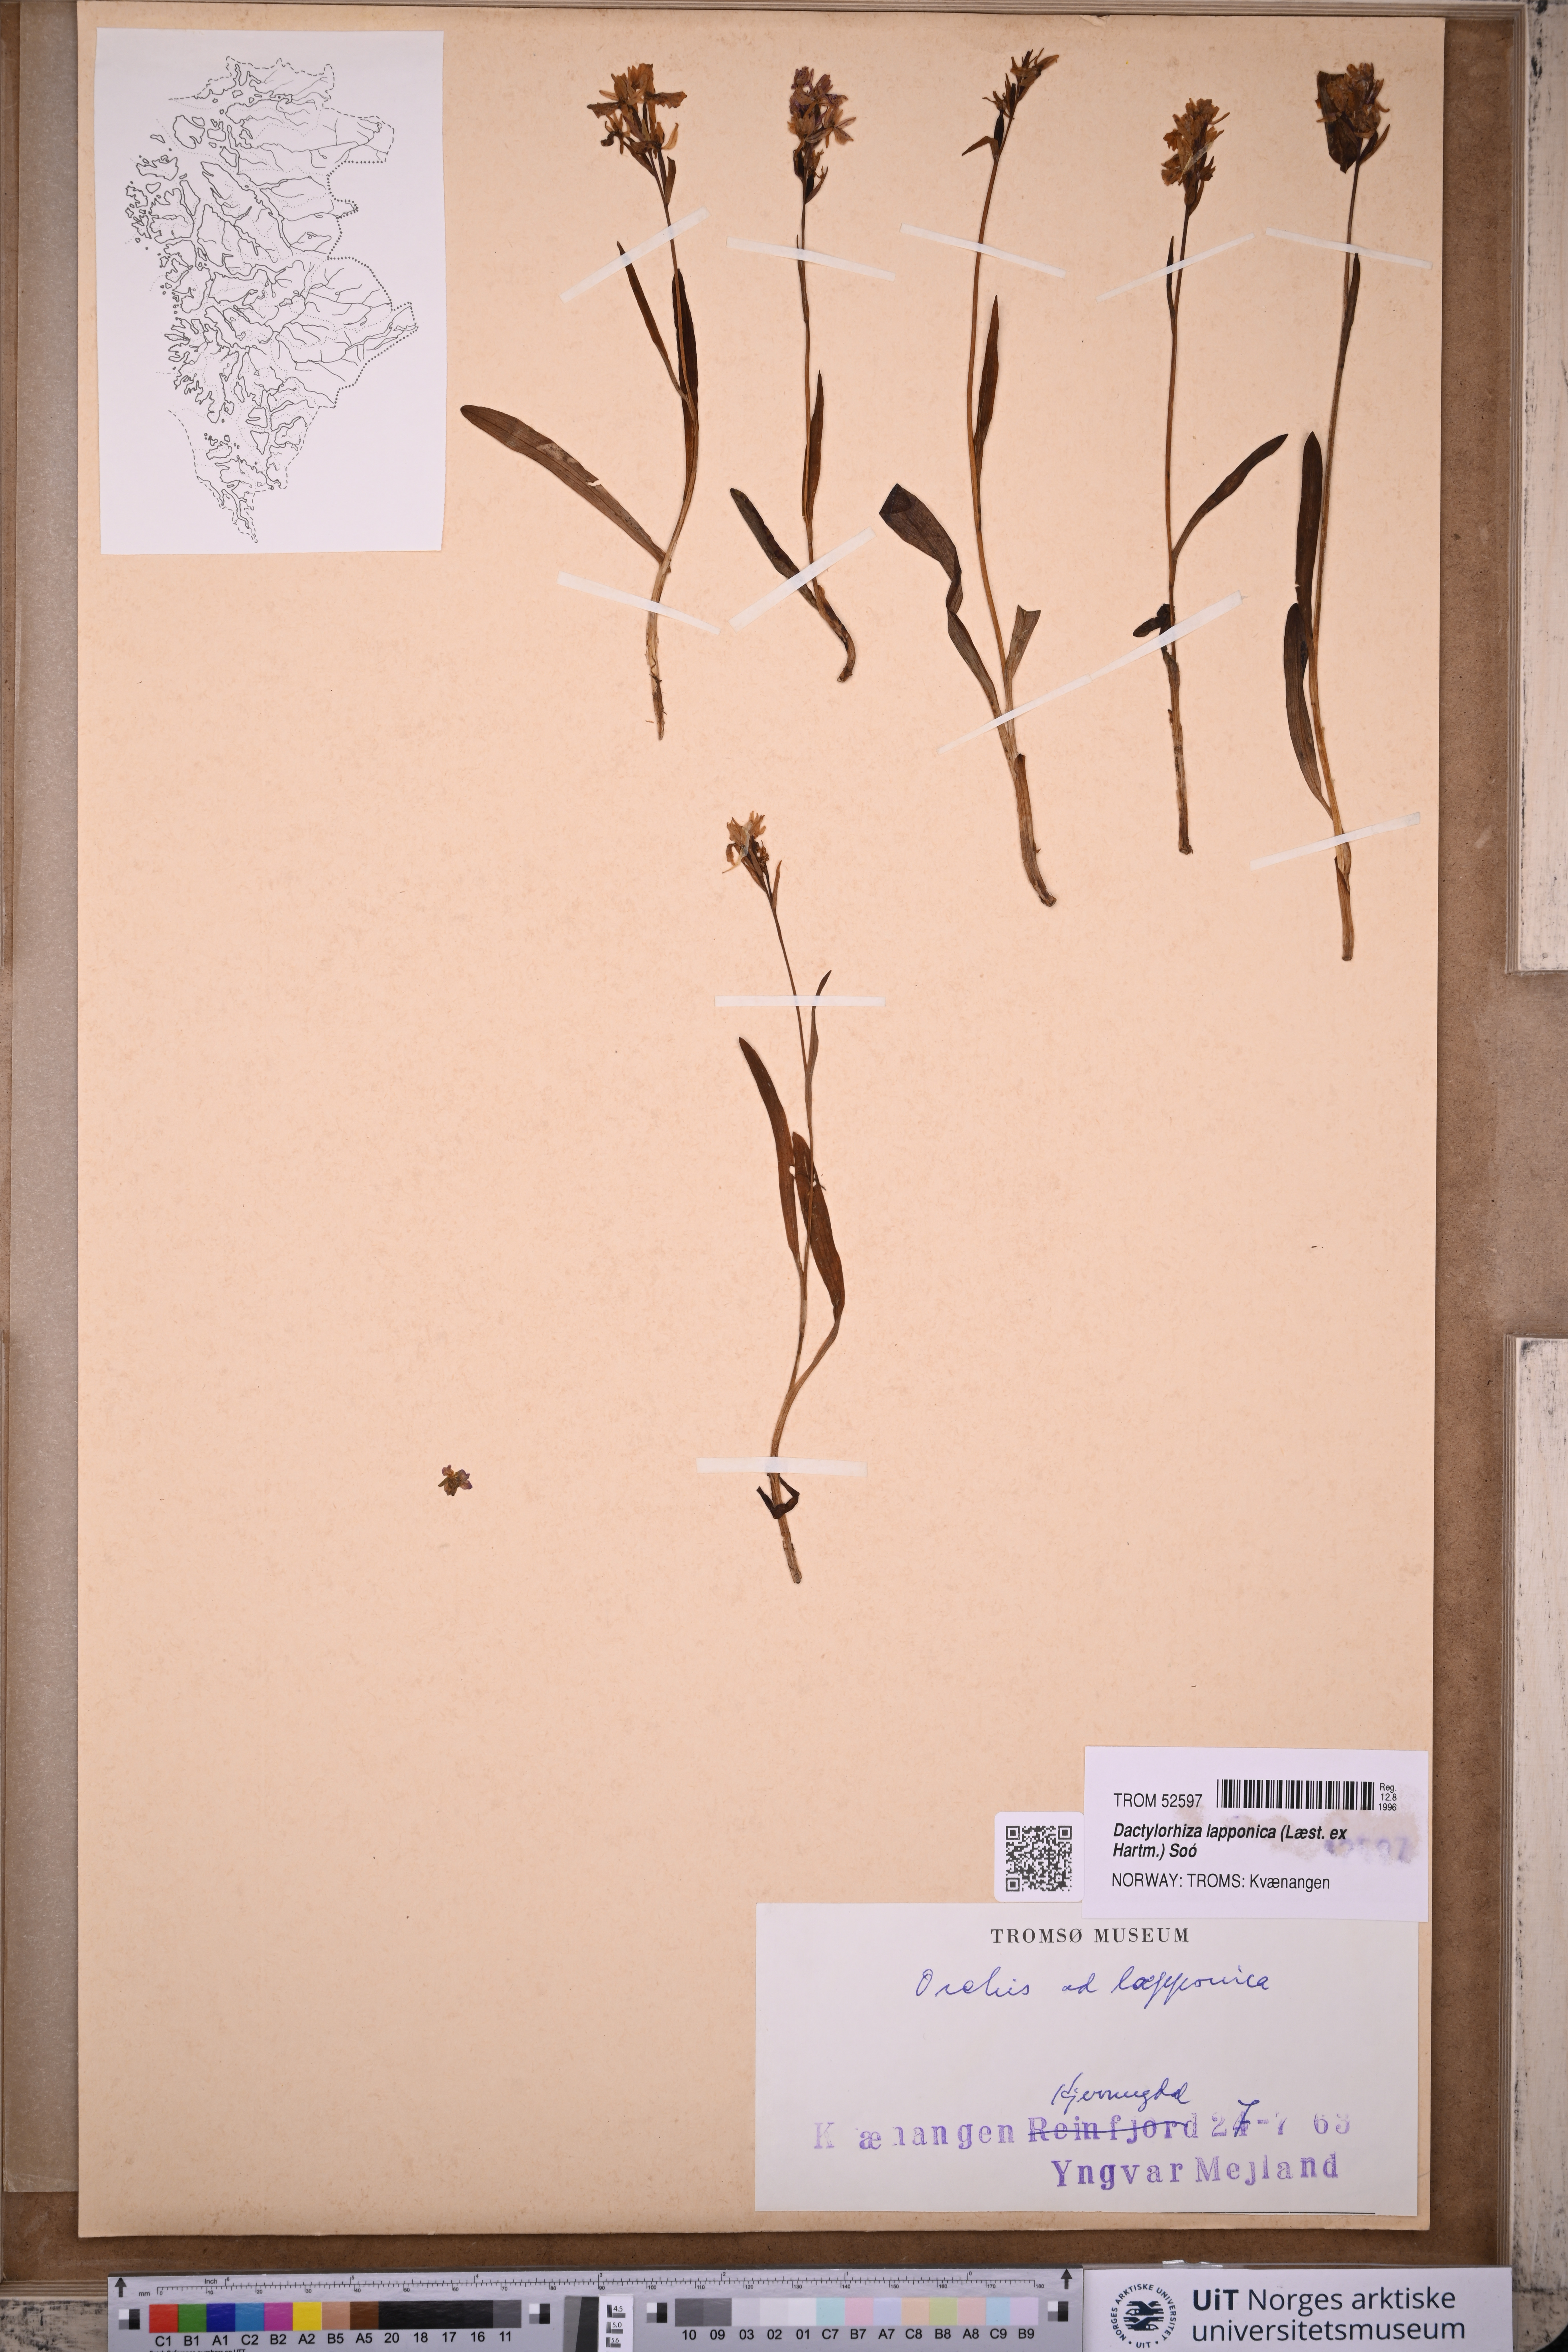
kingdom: Plantae
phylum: Tracheophyta
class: Liliopsida
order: Asparagales
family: Orchidaceae
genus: Dactylorhiza
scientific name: Dactylorhiza majalis
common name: Marsh orchid
